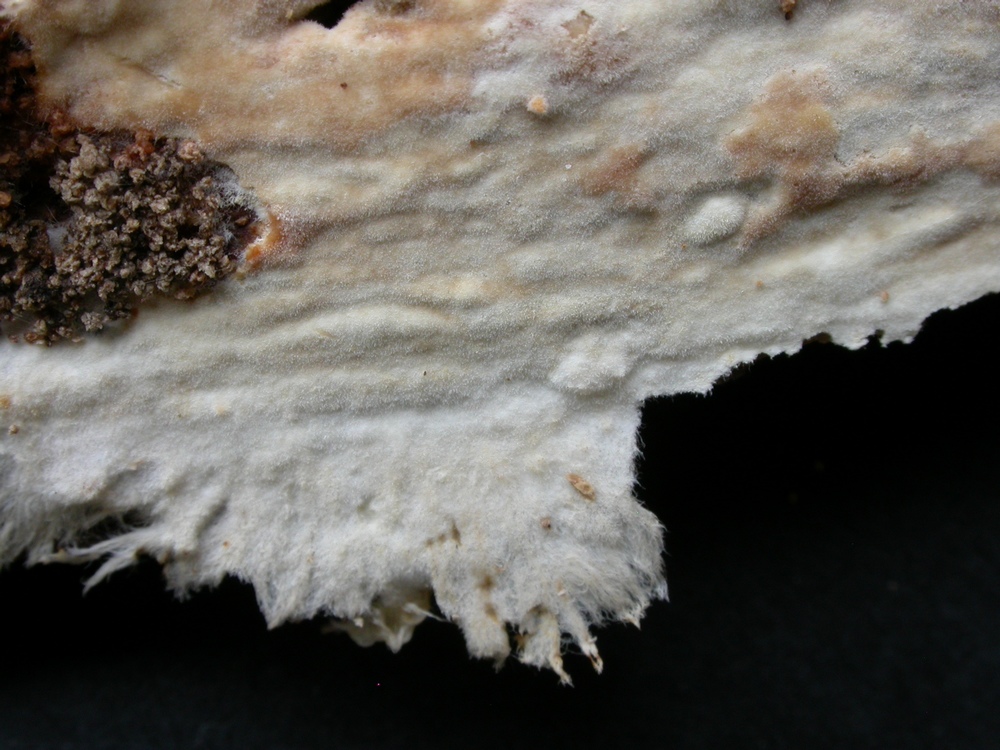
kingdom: Fungi
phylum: Basidiomycota
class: Agaricomycetes
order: Atheliales
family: Atheliaceae
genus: Amphinema
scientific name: Amphinema byssoides
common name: almindelig rodhinde
